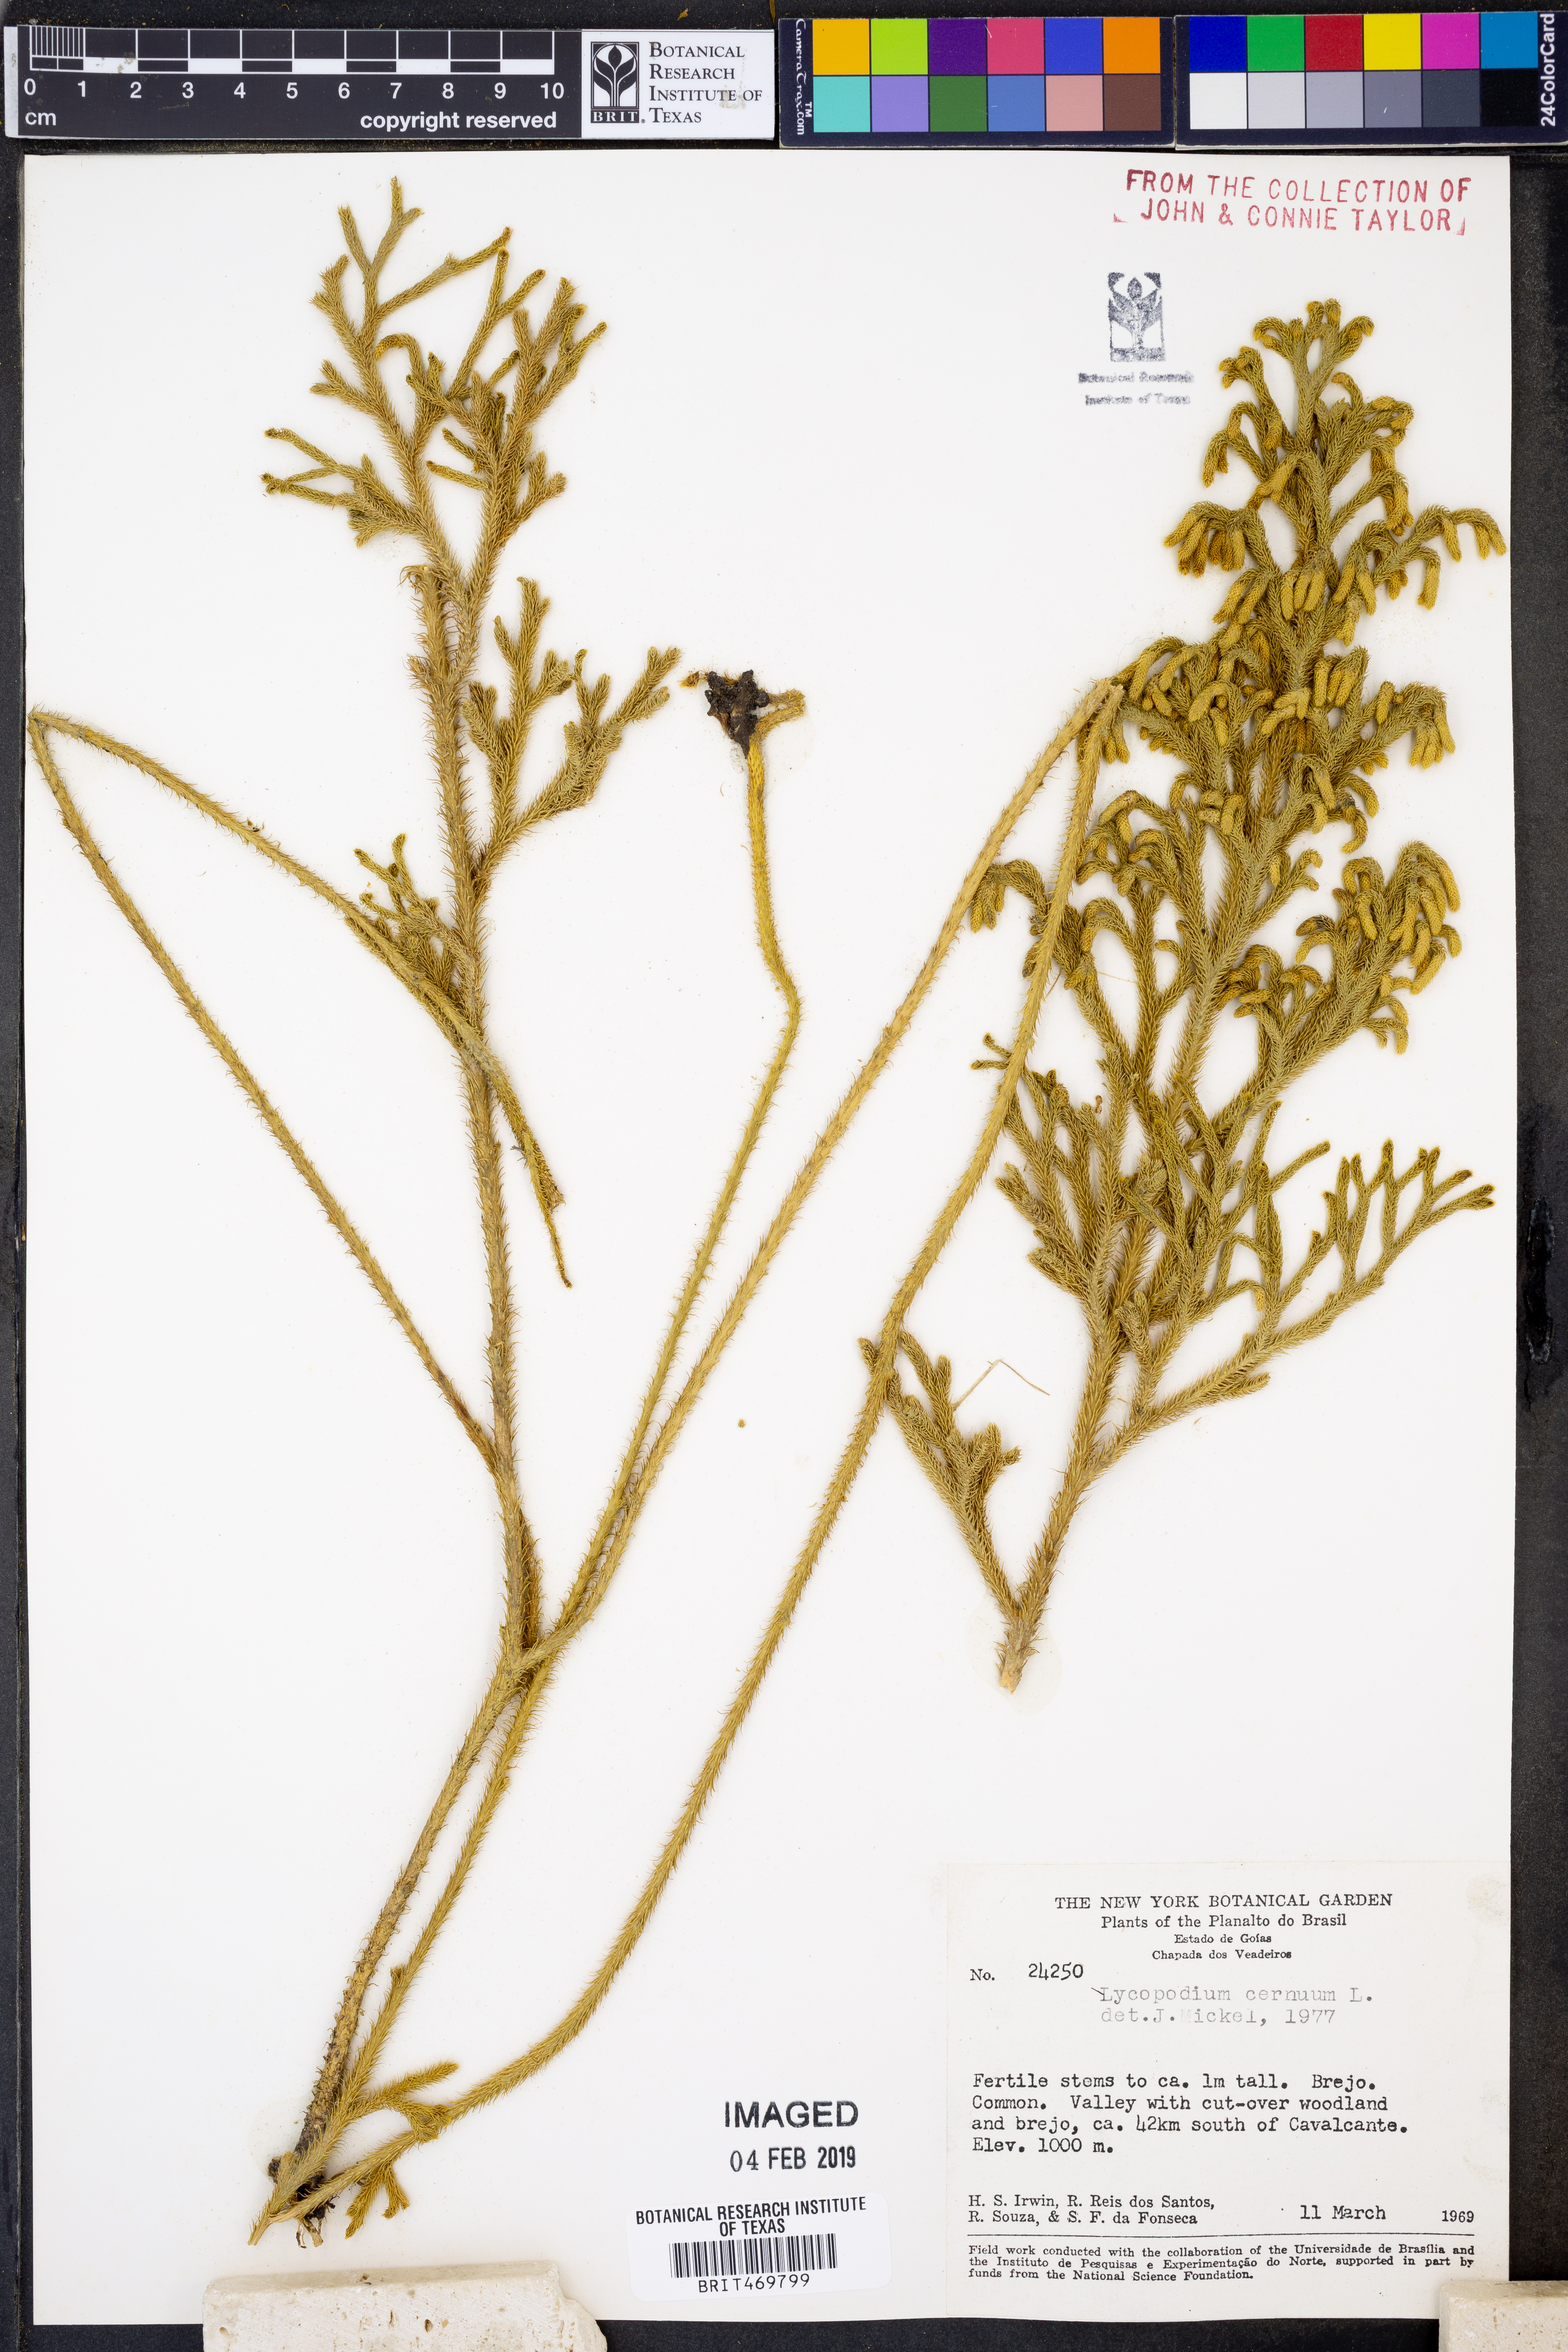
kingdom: Plantae
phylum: Tracheophyta
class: Lycopodiopsida
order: Lycopodiales
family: Lycopodiaceae
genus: Palhinhaea
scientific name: Palhinhaea cernua
